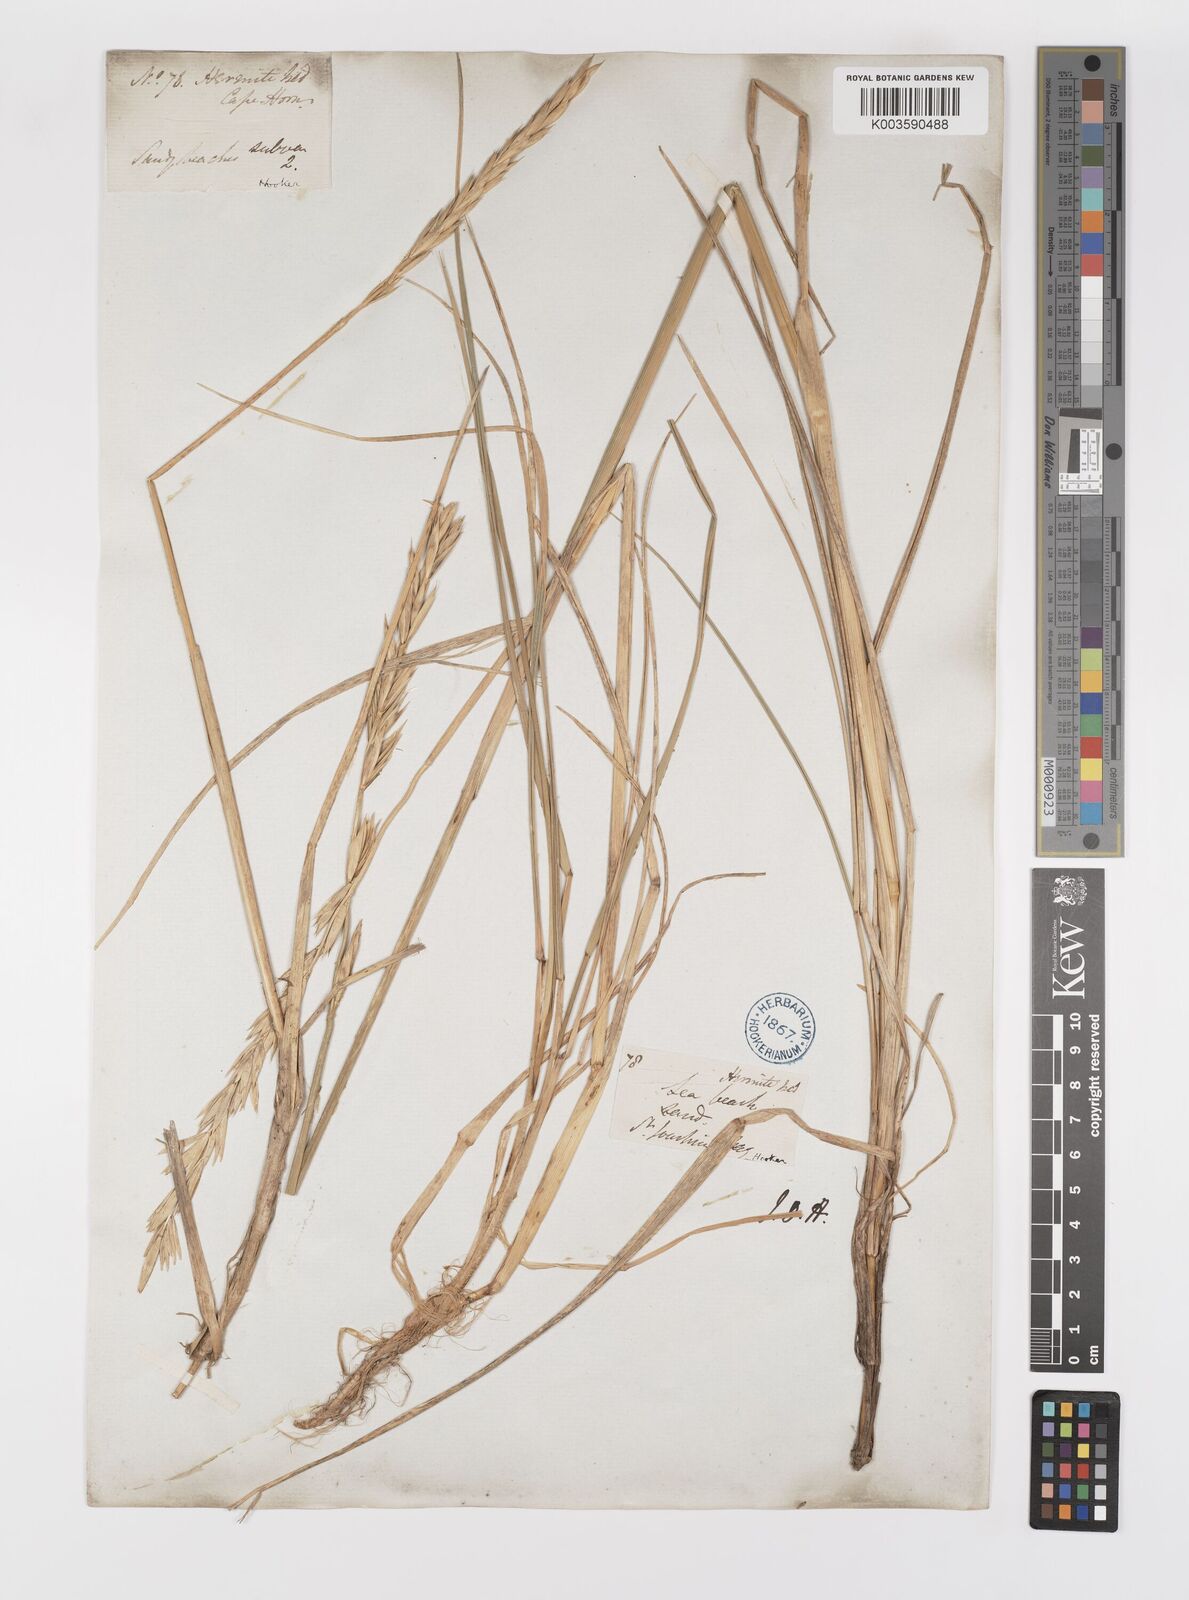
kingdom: Plantae
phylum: Tracheophyta
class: Liliopsida
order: Poales
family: Poaceae
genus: Elymus
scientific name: Elymus magellanicus
